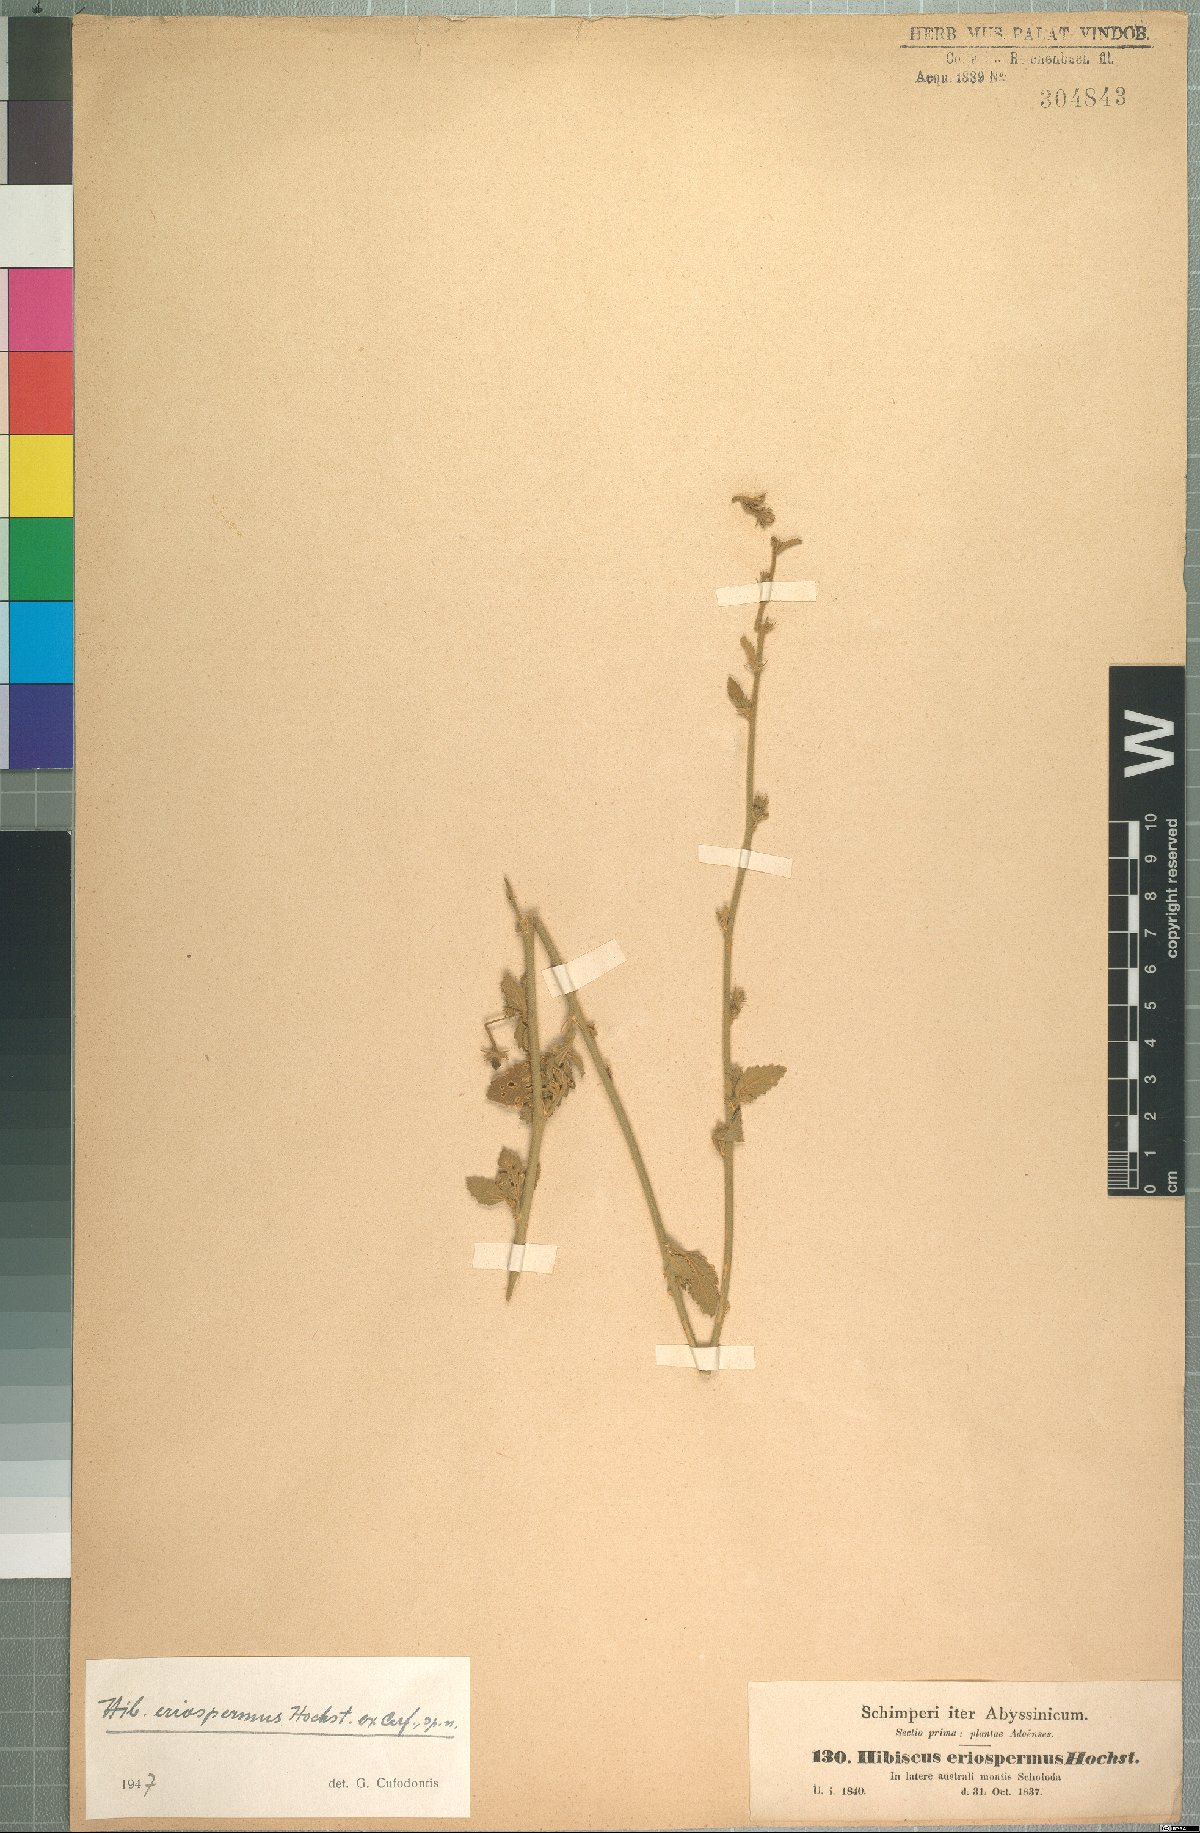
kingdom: Plantae
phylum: Tracheophyta
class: Magnoliopsida
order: Malvales
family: Malvaceae
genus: Hibiscus
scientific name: Hibiscus eriospermus
